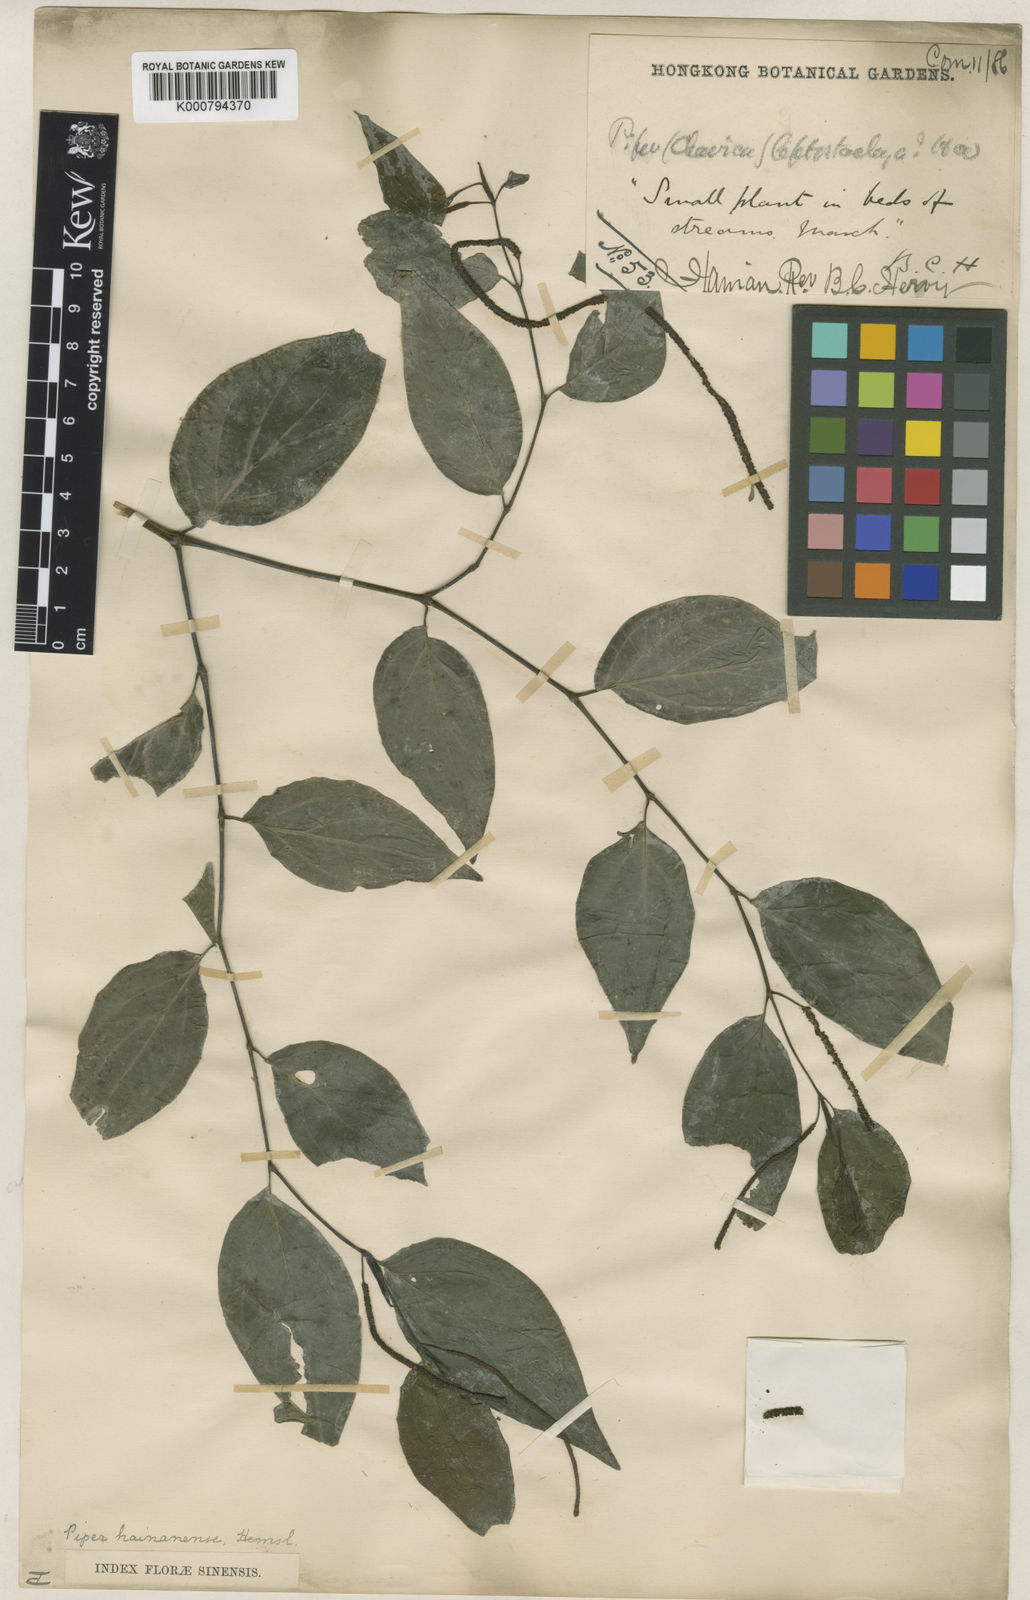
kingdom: Plantae
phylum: Tracheophyta
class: Magnoliopsida
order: Piperales
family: Piperaceae
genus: Piper
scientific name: Piper hainanense
